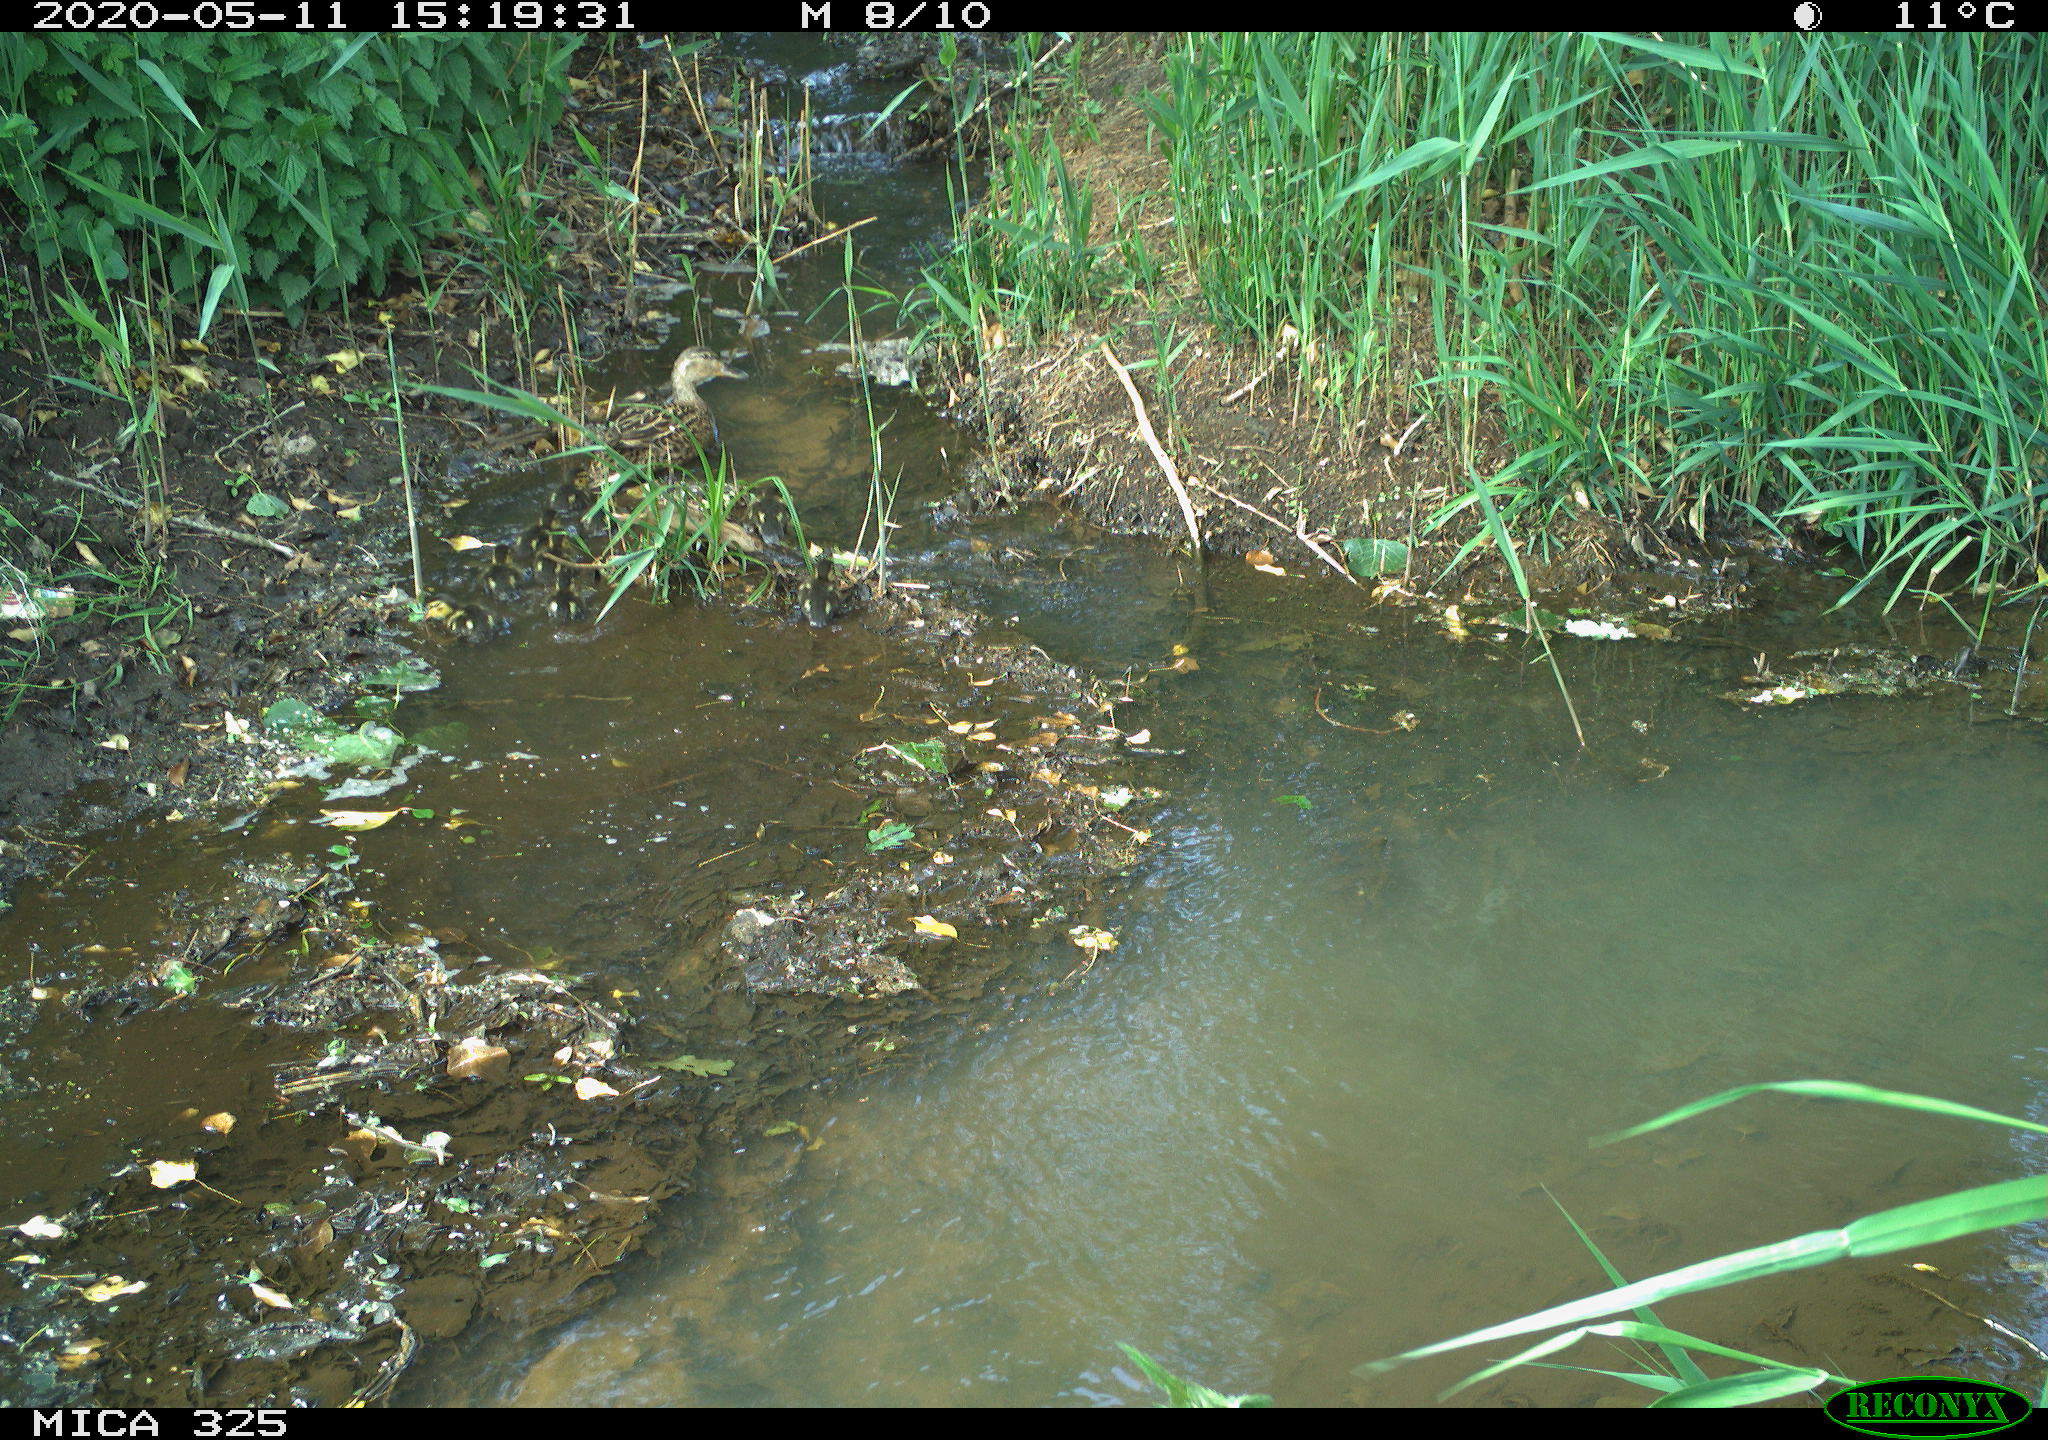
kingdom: Animalia
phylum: Chordata
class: Aves
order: Anseriformes
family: Anatidae
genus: Anas
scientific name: Anas platyrhynchos
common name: Mallard
